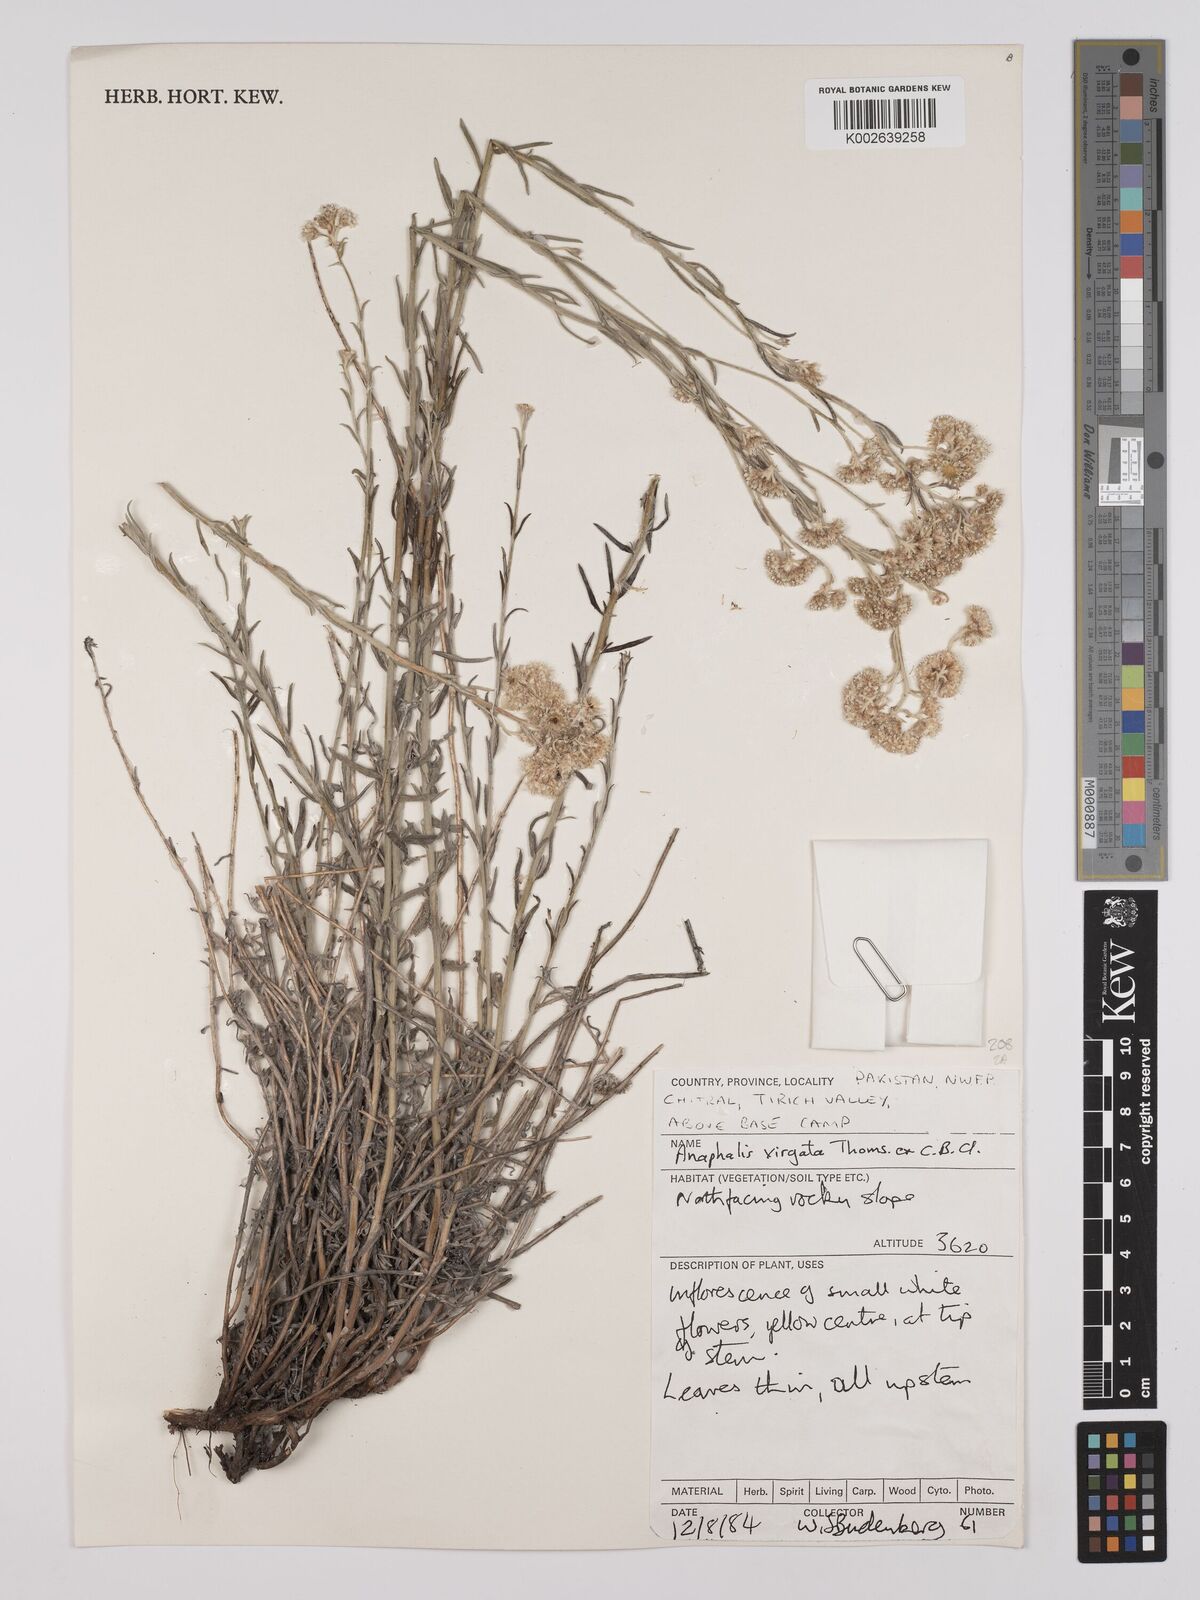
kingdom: Plantae
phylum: Tracheophyta
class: Magnoliopsida
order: Asterales
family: Asteraceae
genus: Anaphalis
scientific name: Anaphalis virgata
